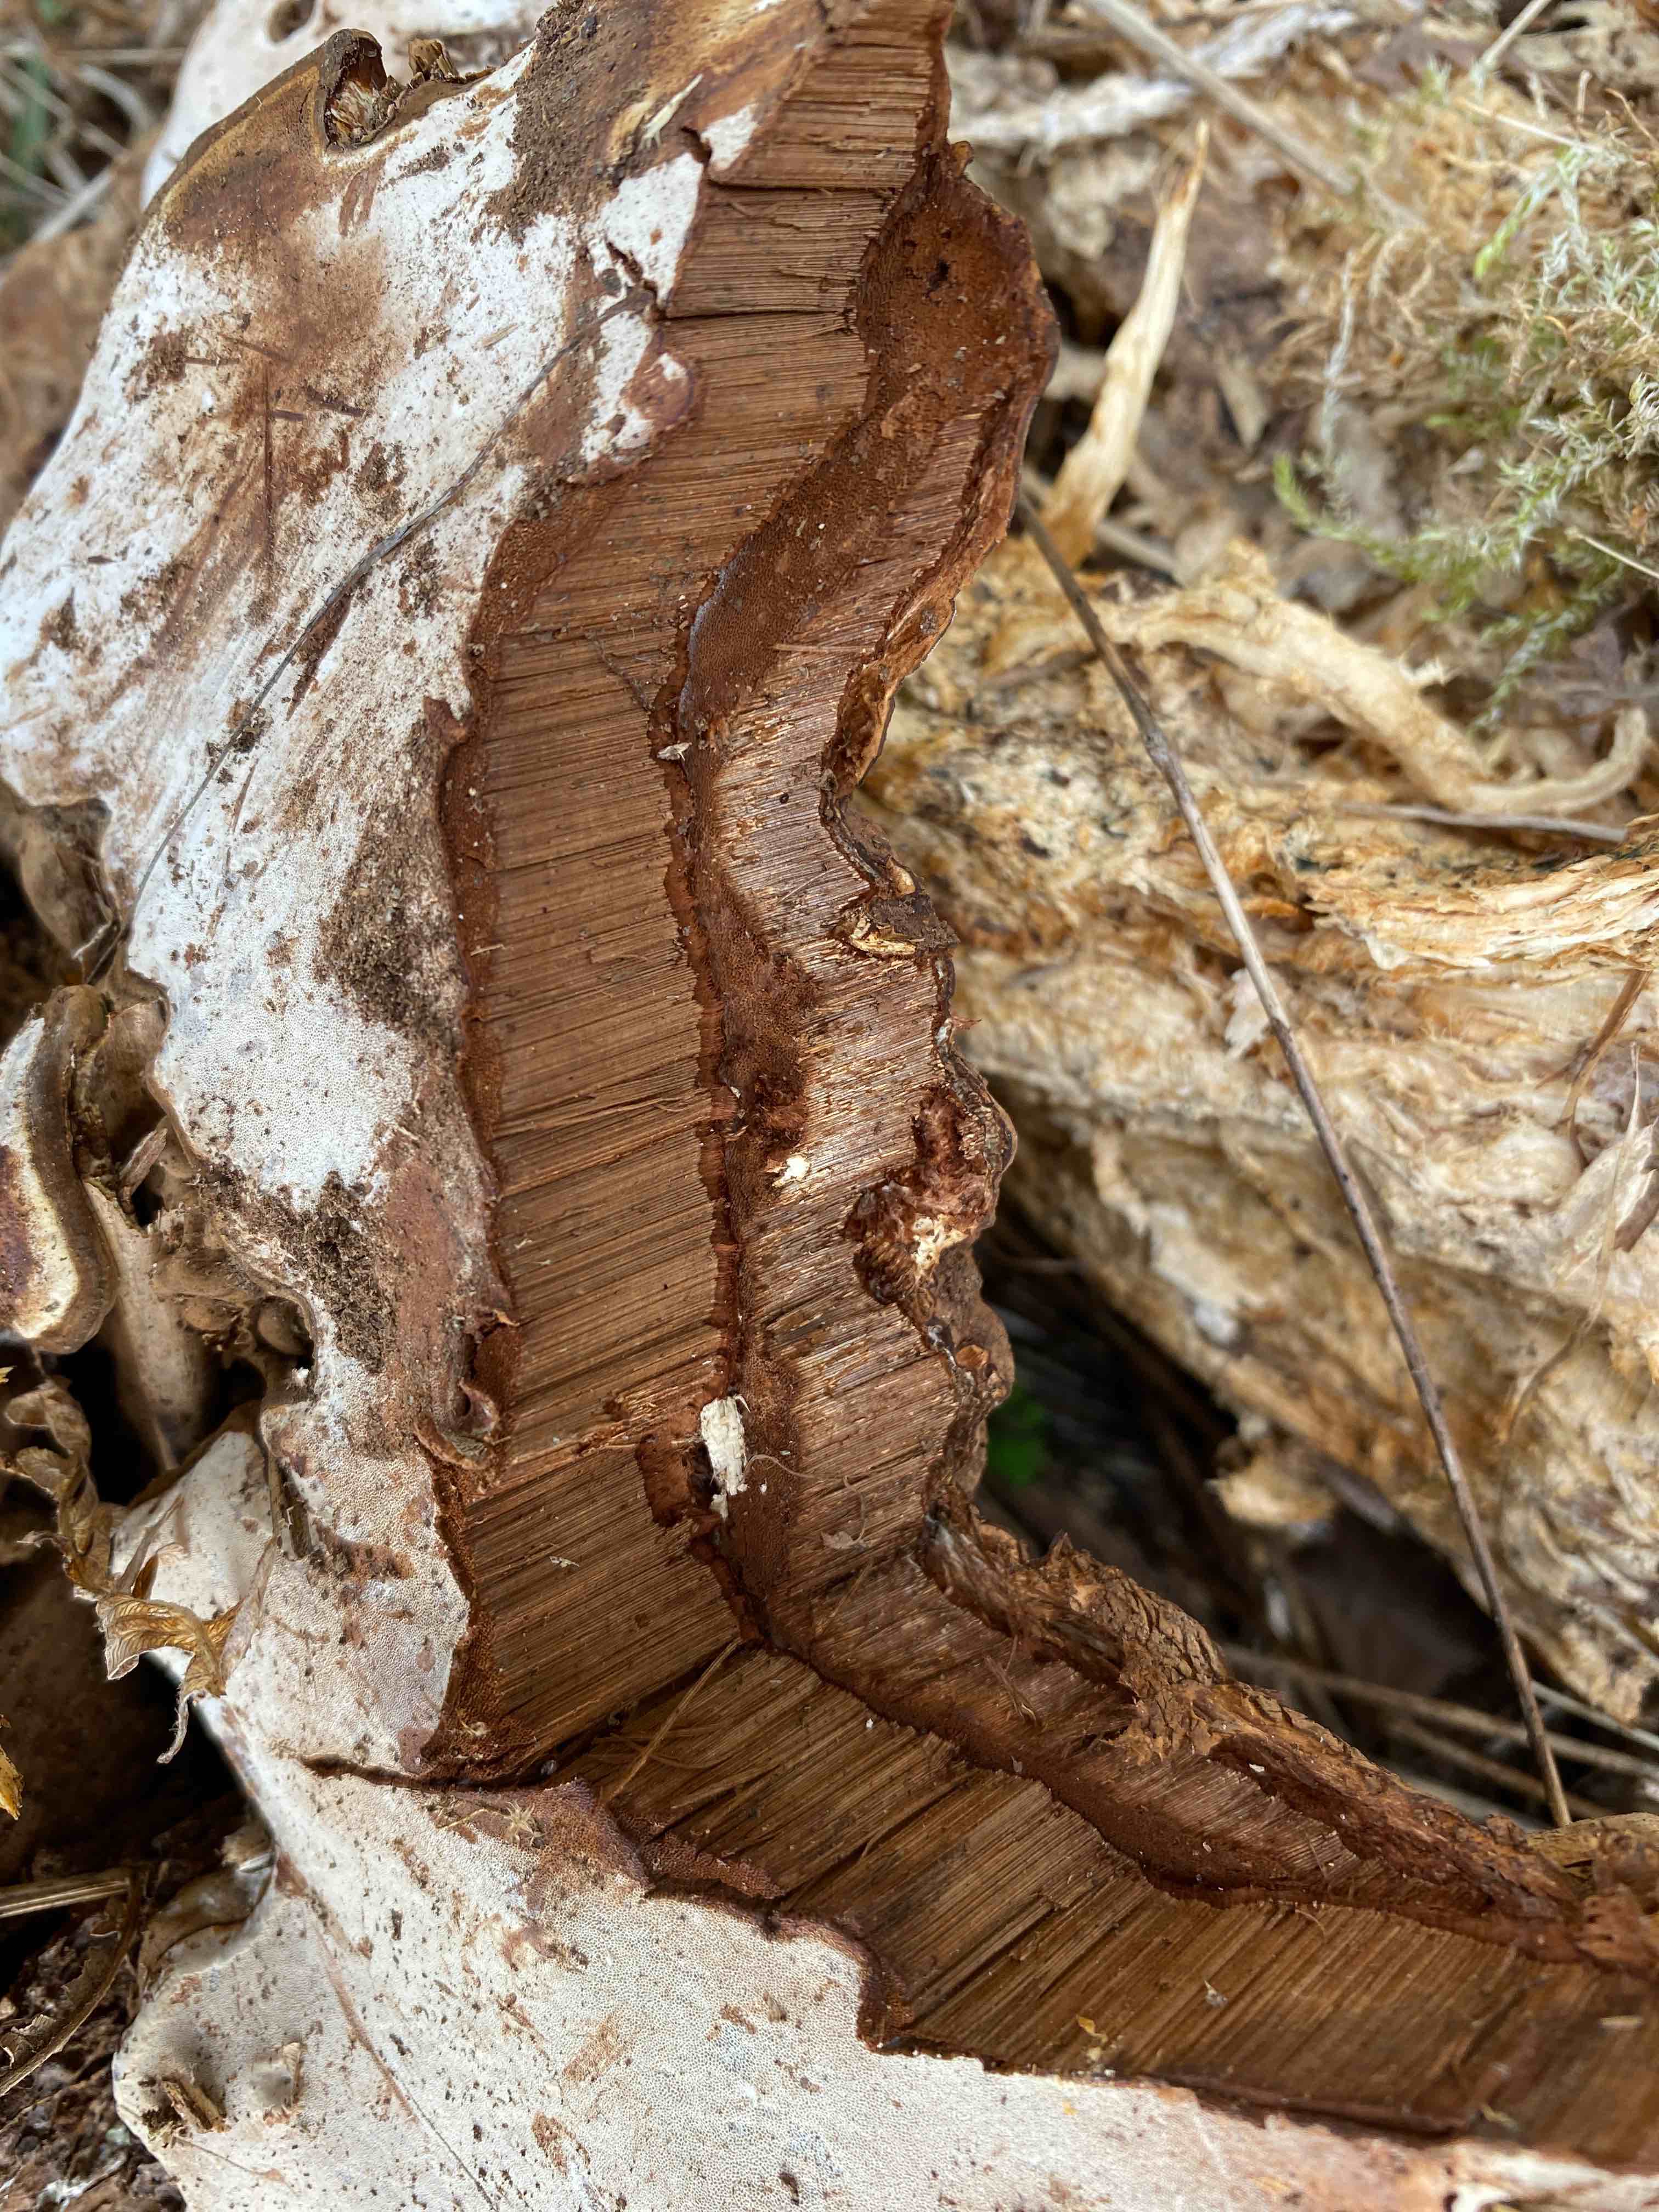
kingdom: Fungi
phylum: Basidiomycota
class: Agaricomycetes
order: Polyporales
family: Polyporaceae
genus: Ganoderma
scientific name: Ganoderma applanatum
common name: flad lakporesvamp
